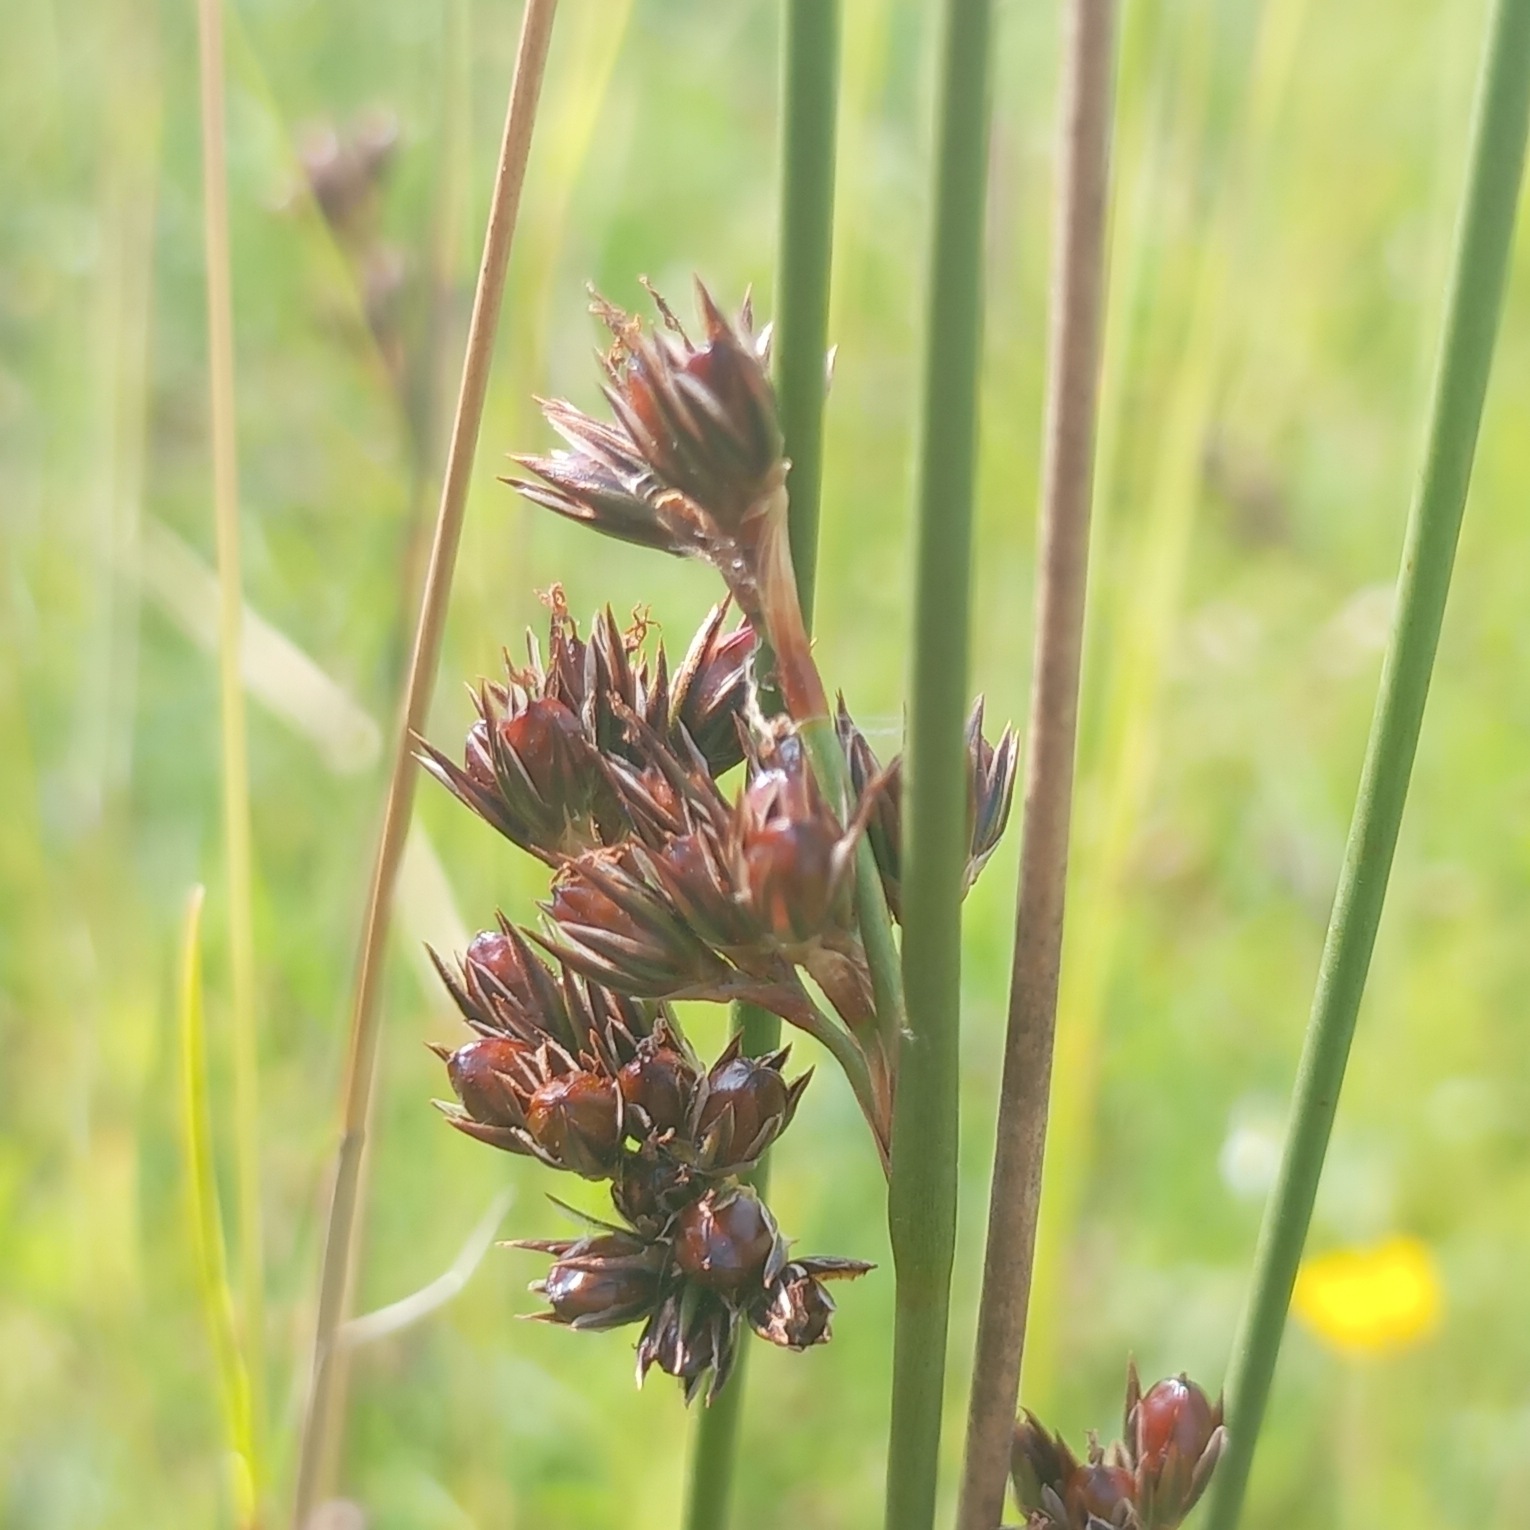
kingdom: Plantae
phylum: Tracheophyta
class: Liliopsida
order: Poales
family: Juncaceae
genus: Juncus
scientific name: Juncus balticus
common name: Klit-siv
